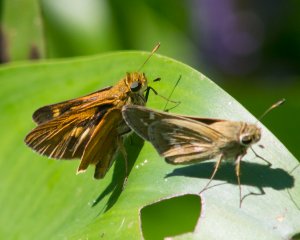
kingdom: Animalia
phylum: Arthropoda
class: Insecta
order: Lepidoptera
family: Hesperiidae
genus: Euphyes
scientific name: Euphyes dion
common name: Dion Skipper
